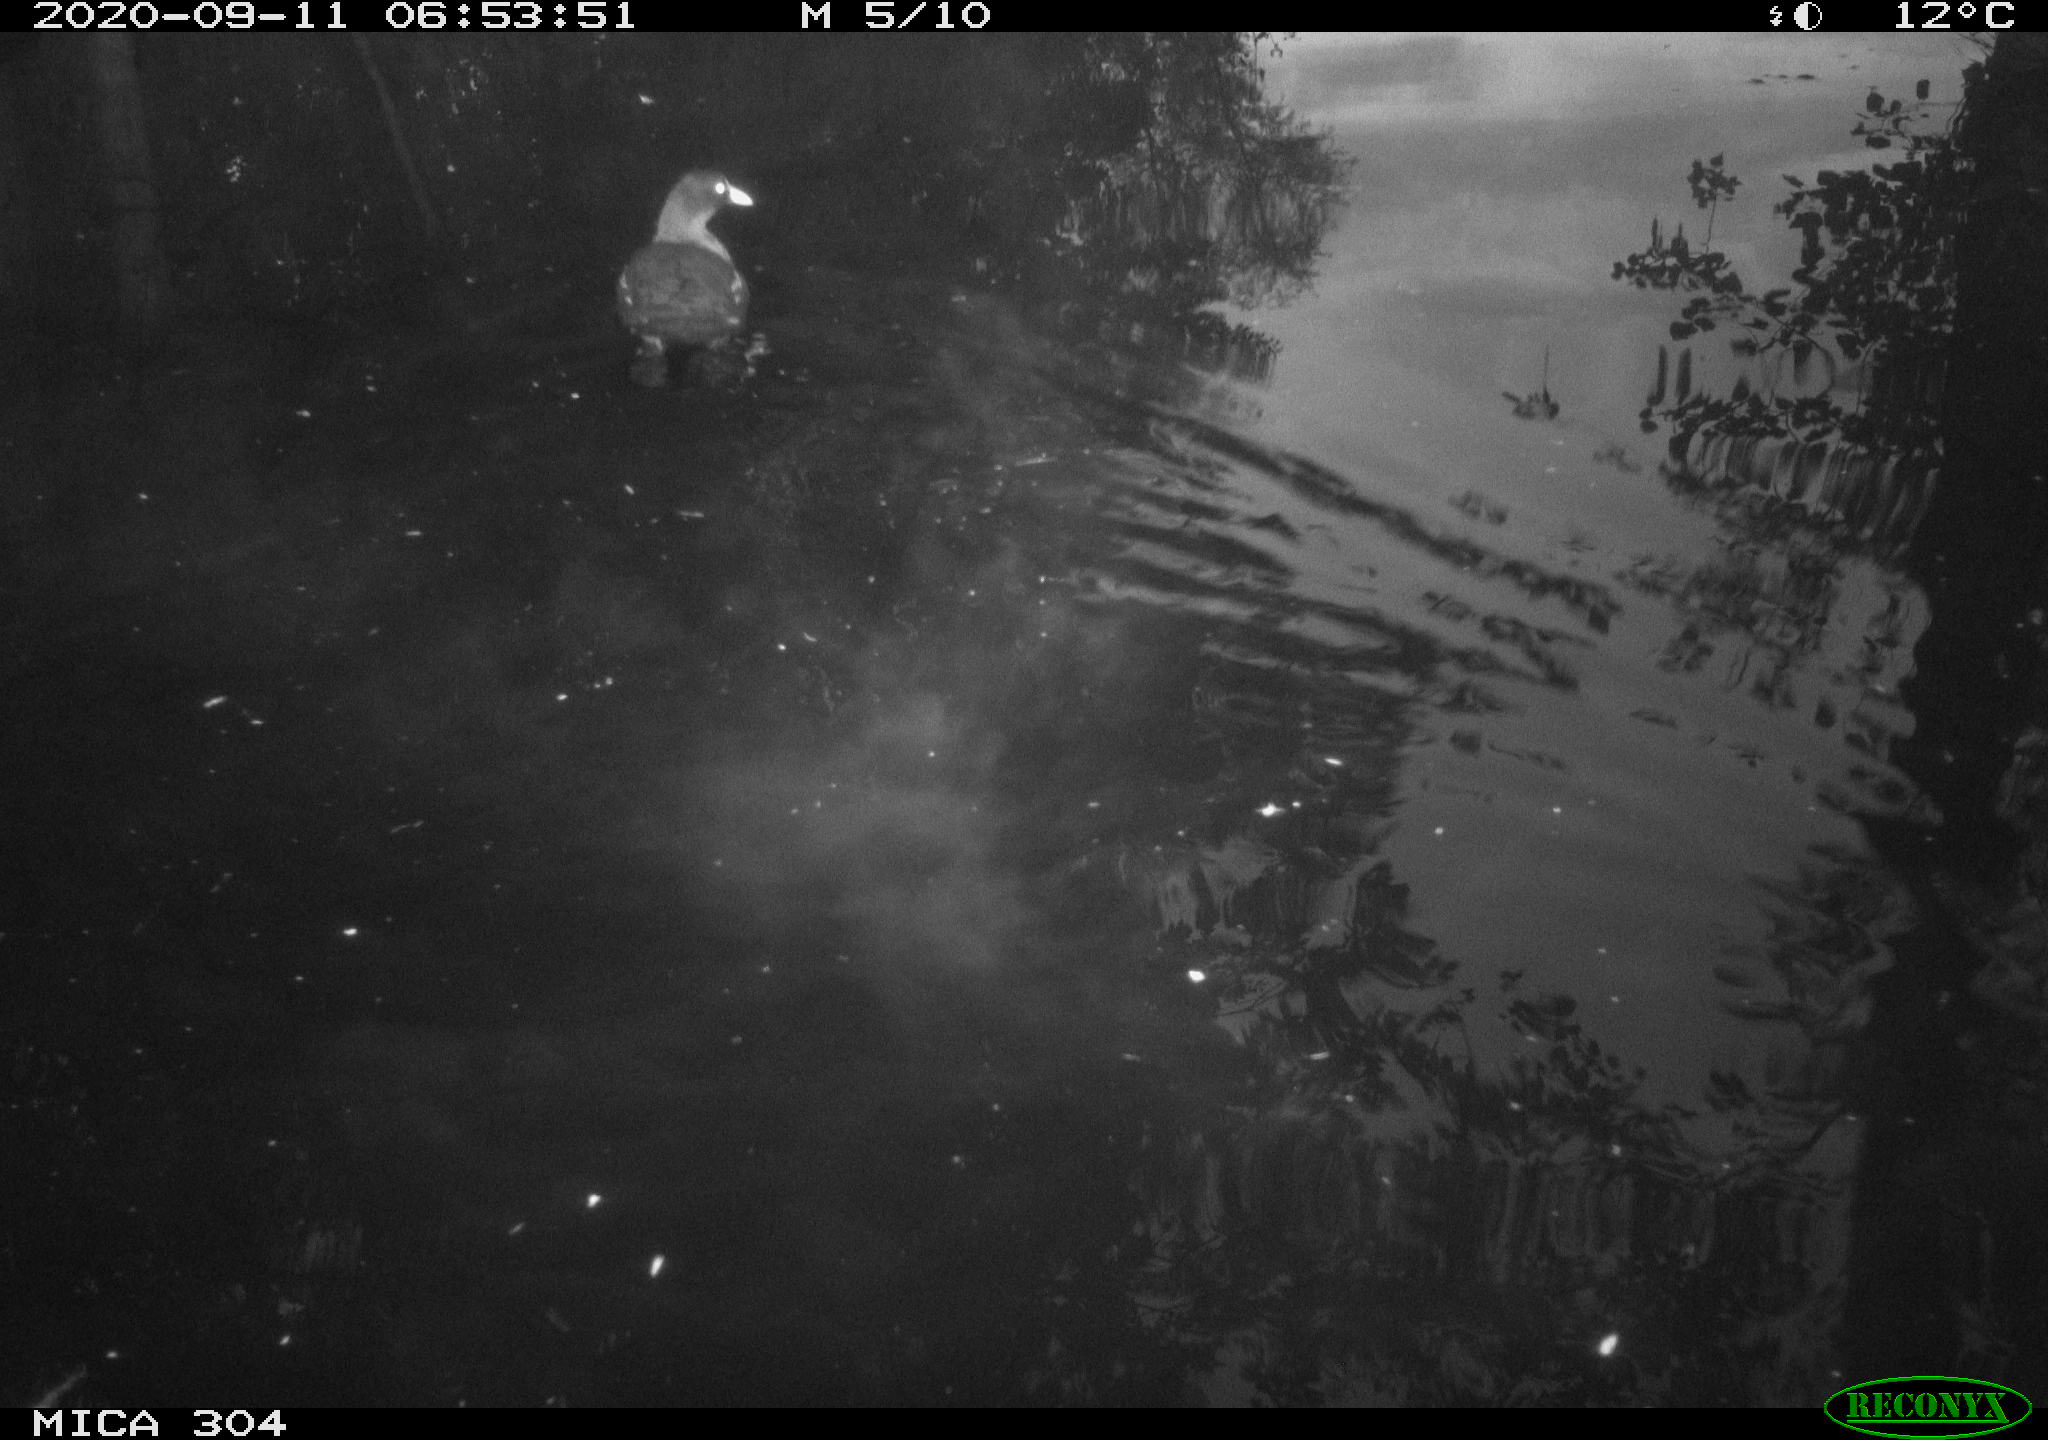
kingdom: Animalia
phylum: Chordata
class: Aves
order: Gruiformes
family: Rallidae
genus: Gallinula
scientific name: Gallinula chloropus
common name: Common moorhen
